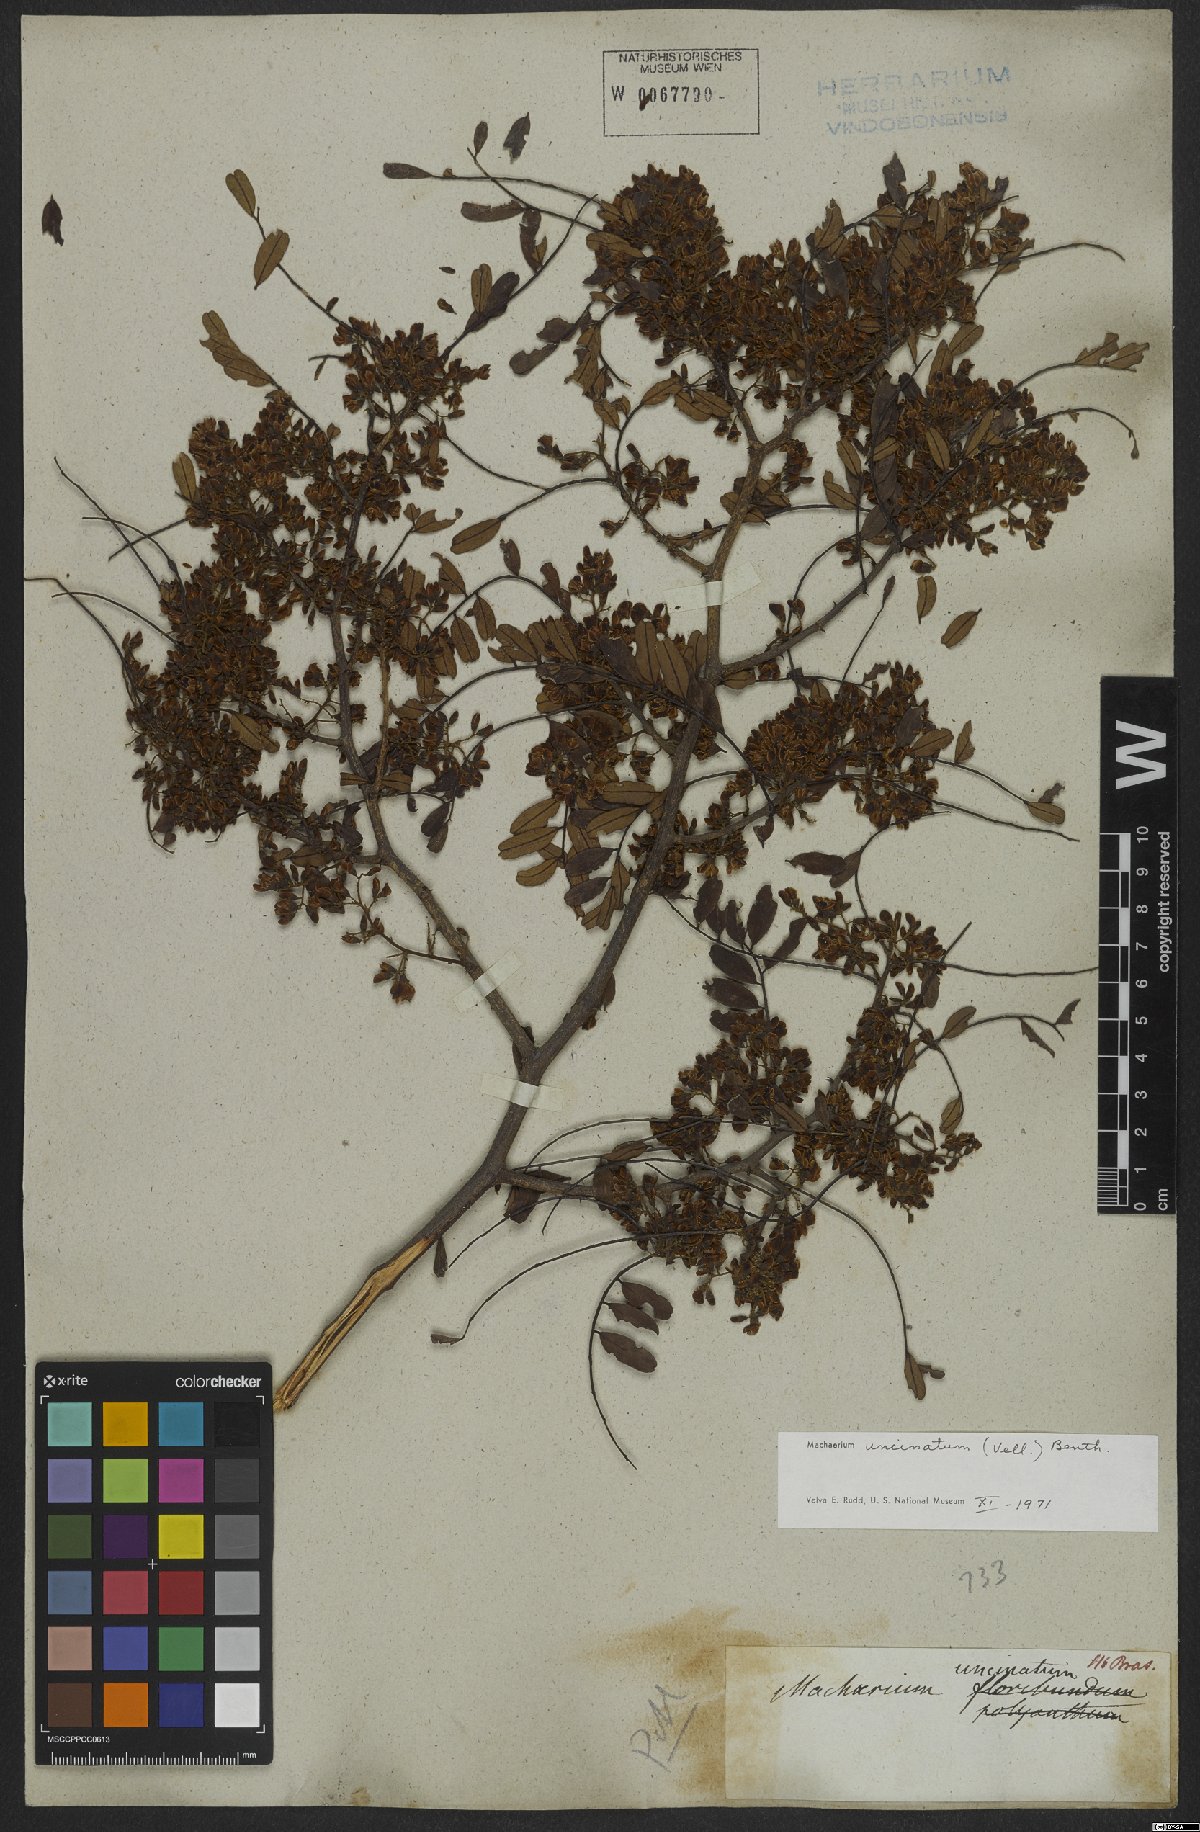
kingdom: Plantae
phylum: Tracheophyta
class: Magnoliopsida
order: Fabales
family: Fabaceae
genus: Machaerium
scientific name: Machaerium uncinatum
